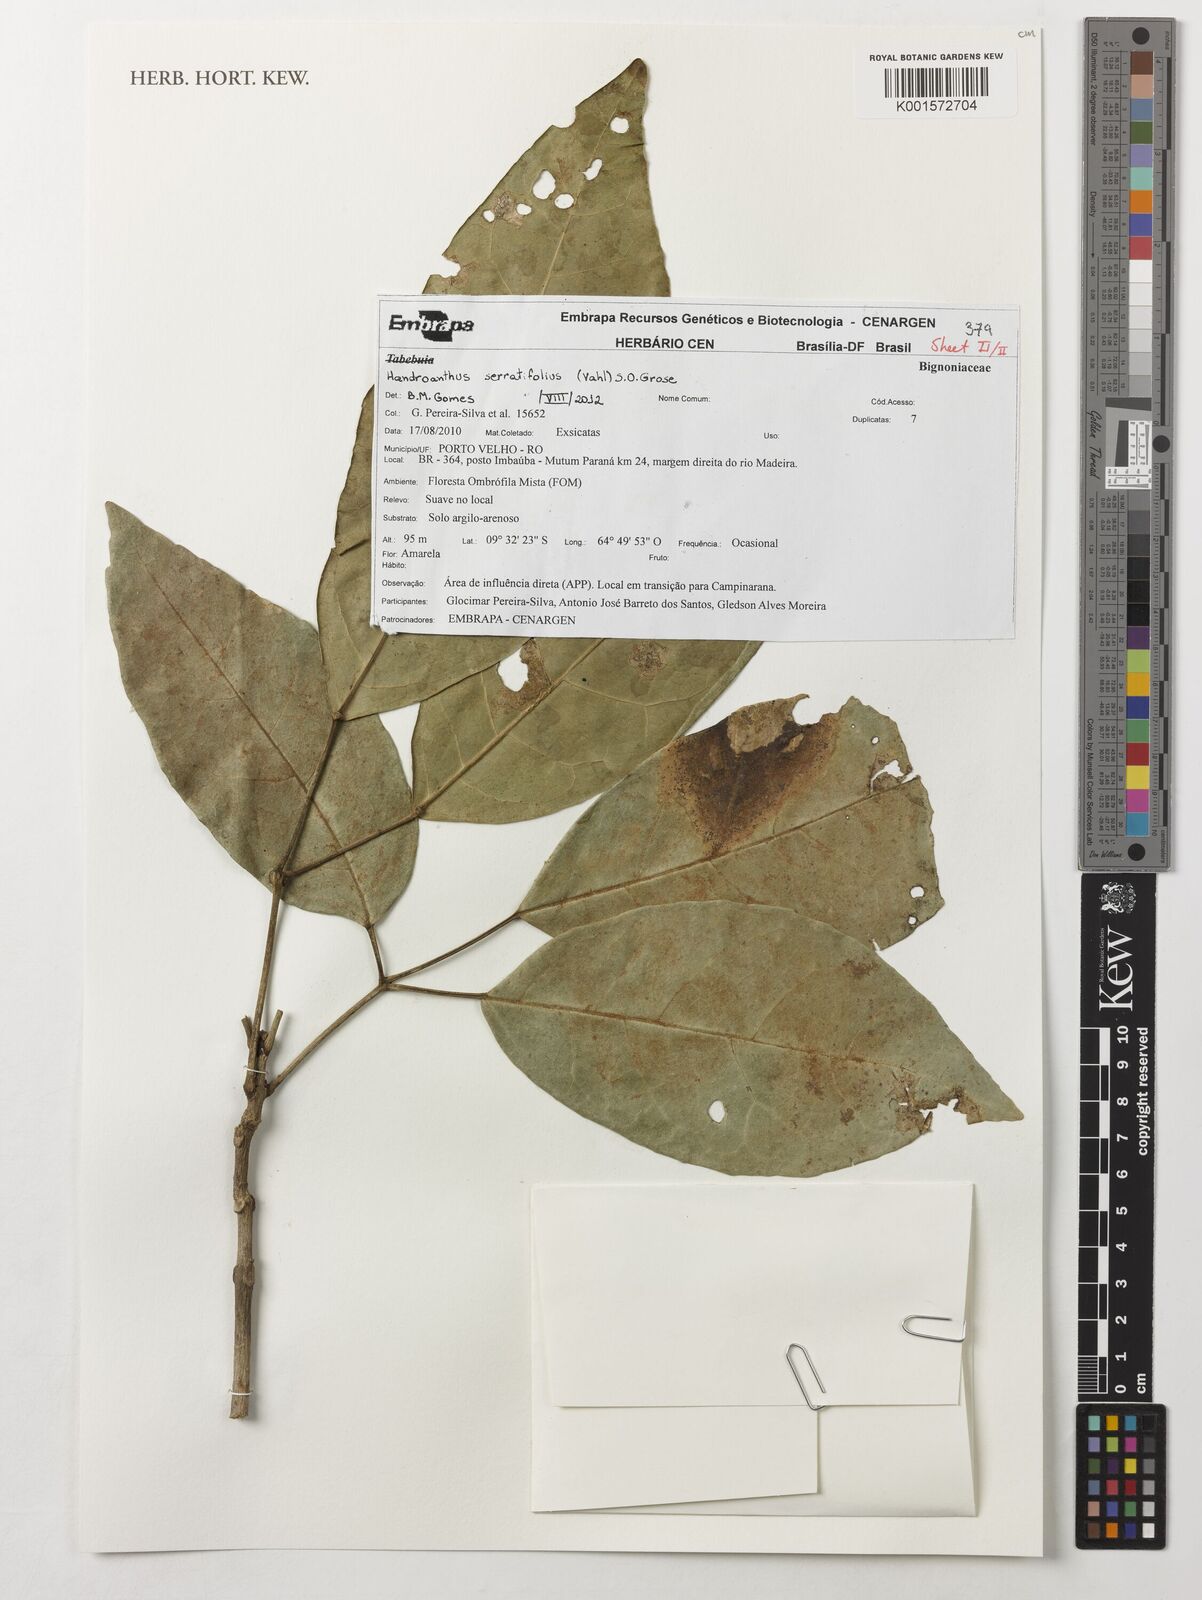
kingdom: Plantae
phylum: Tracheophyta
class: Magnoliopsida
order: Lamiales
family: Bignoniaceae
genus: Handroanthus
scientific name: Handroanthus serratifolius
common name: Yellow ipe
